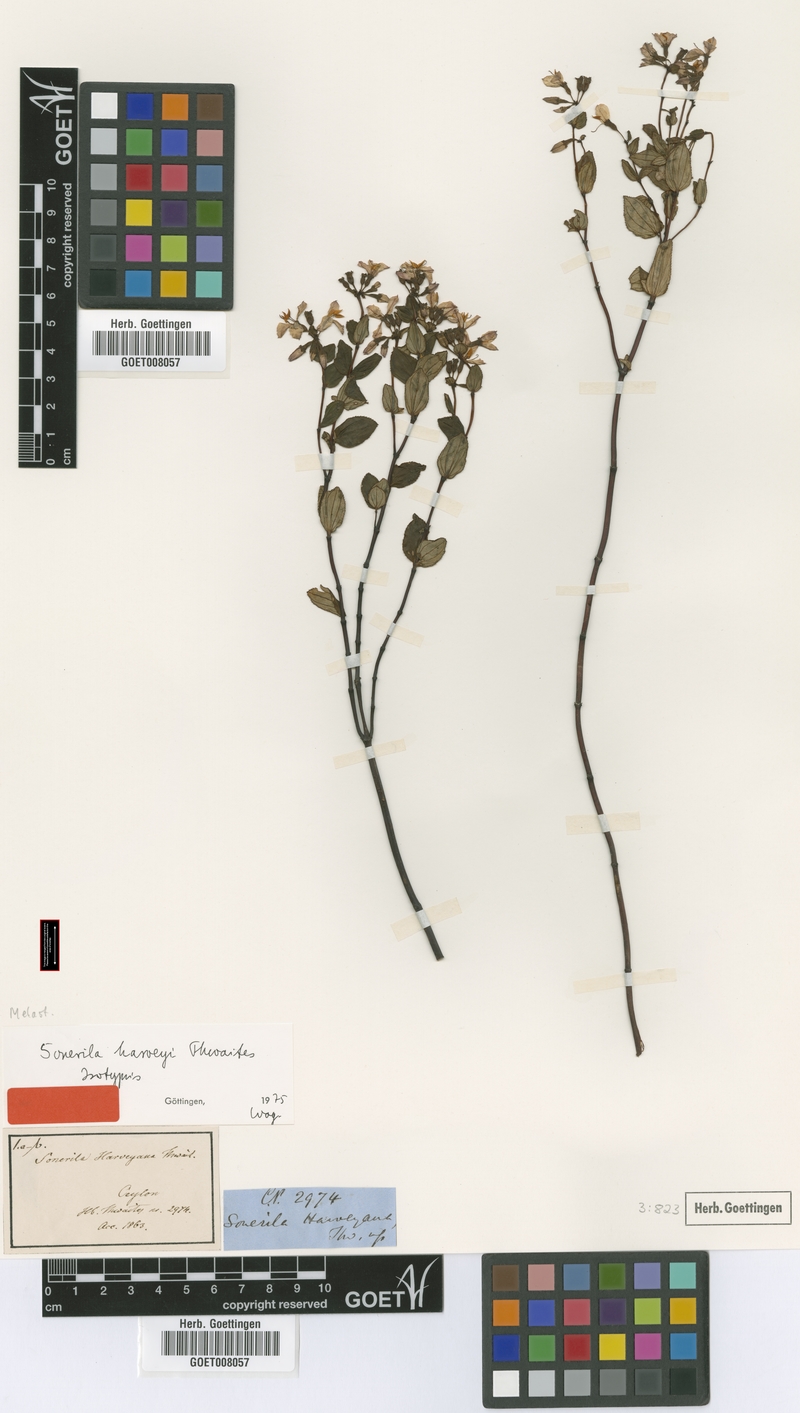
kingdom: Plantae
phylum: Tracheophyta
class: Magnoliopsida
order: Myrtales
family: Melastomataceae
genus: Sonerila
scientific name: Sonerila harveyi
